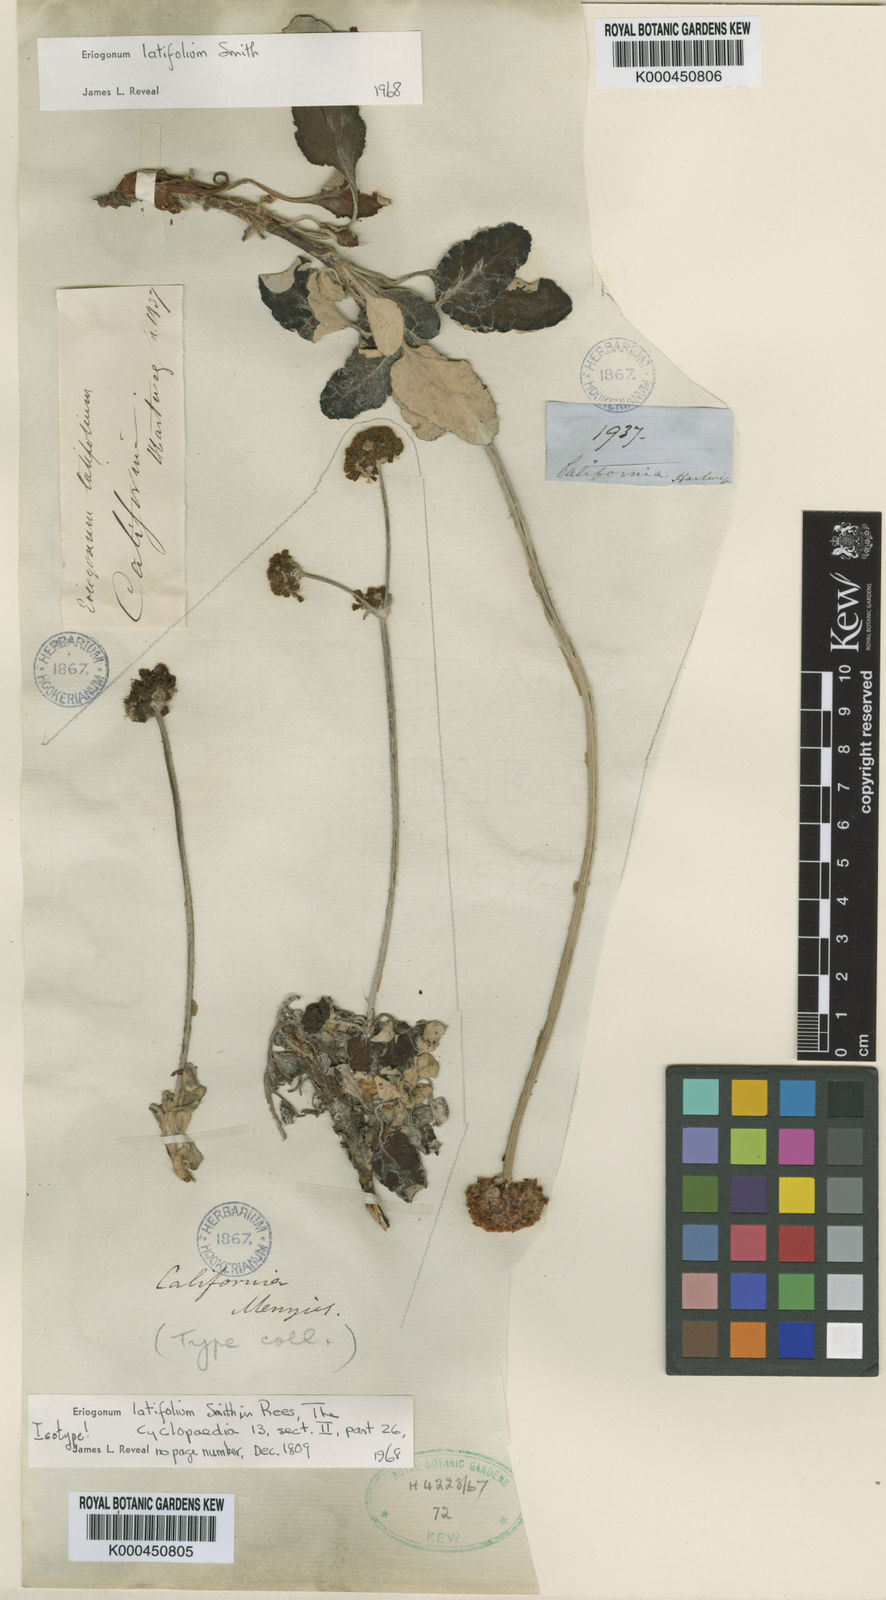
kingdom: Plantae
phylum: Tracheophyta
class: Magnoliopsida
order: Caryophyllales
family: Polygonaceae
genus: Eriogonum
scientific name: Eriogonum latifolium
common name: Seaside wild buckwheat
